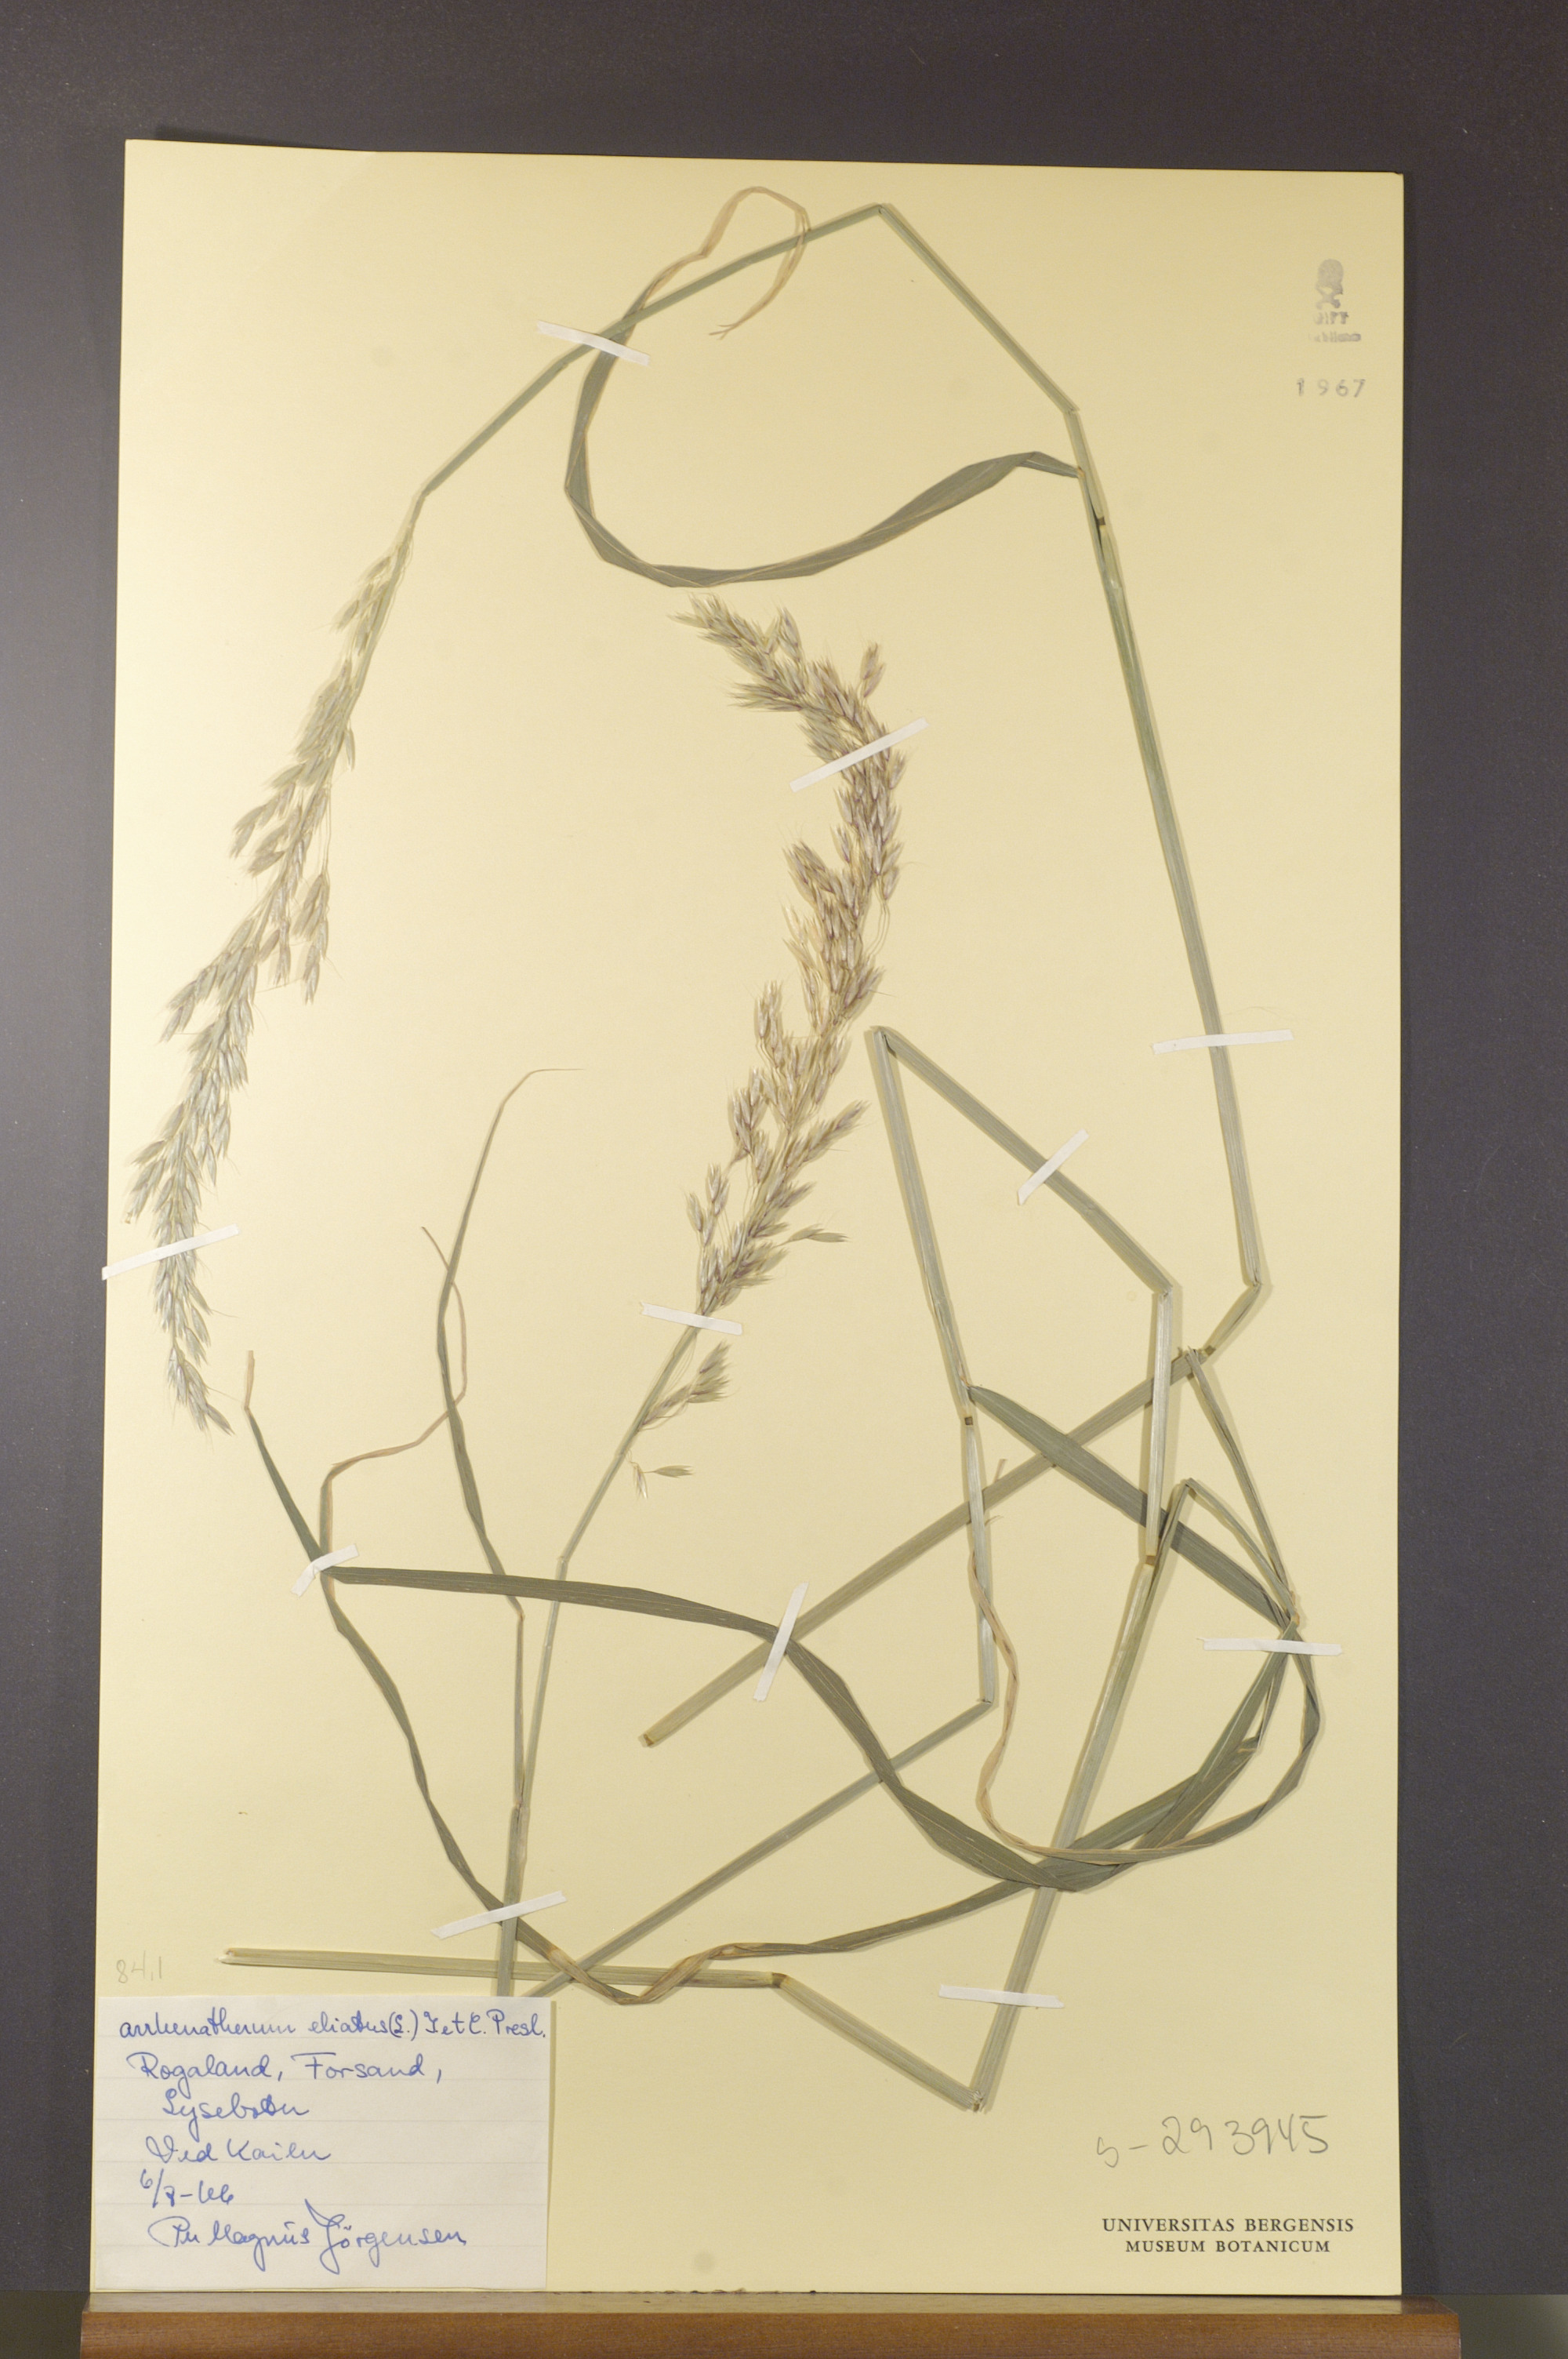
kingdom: Plantae
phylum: Tracheophyta
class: Liliopsida
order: Poales
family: Poaceae
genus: Arrhenatherum
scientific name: Arrhenatherum elatius
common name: Tall oatgrass
